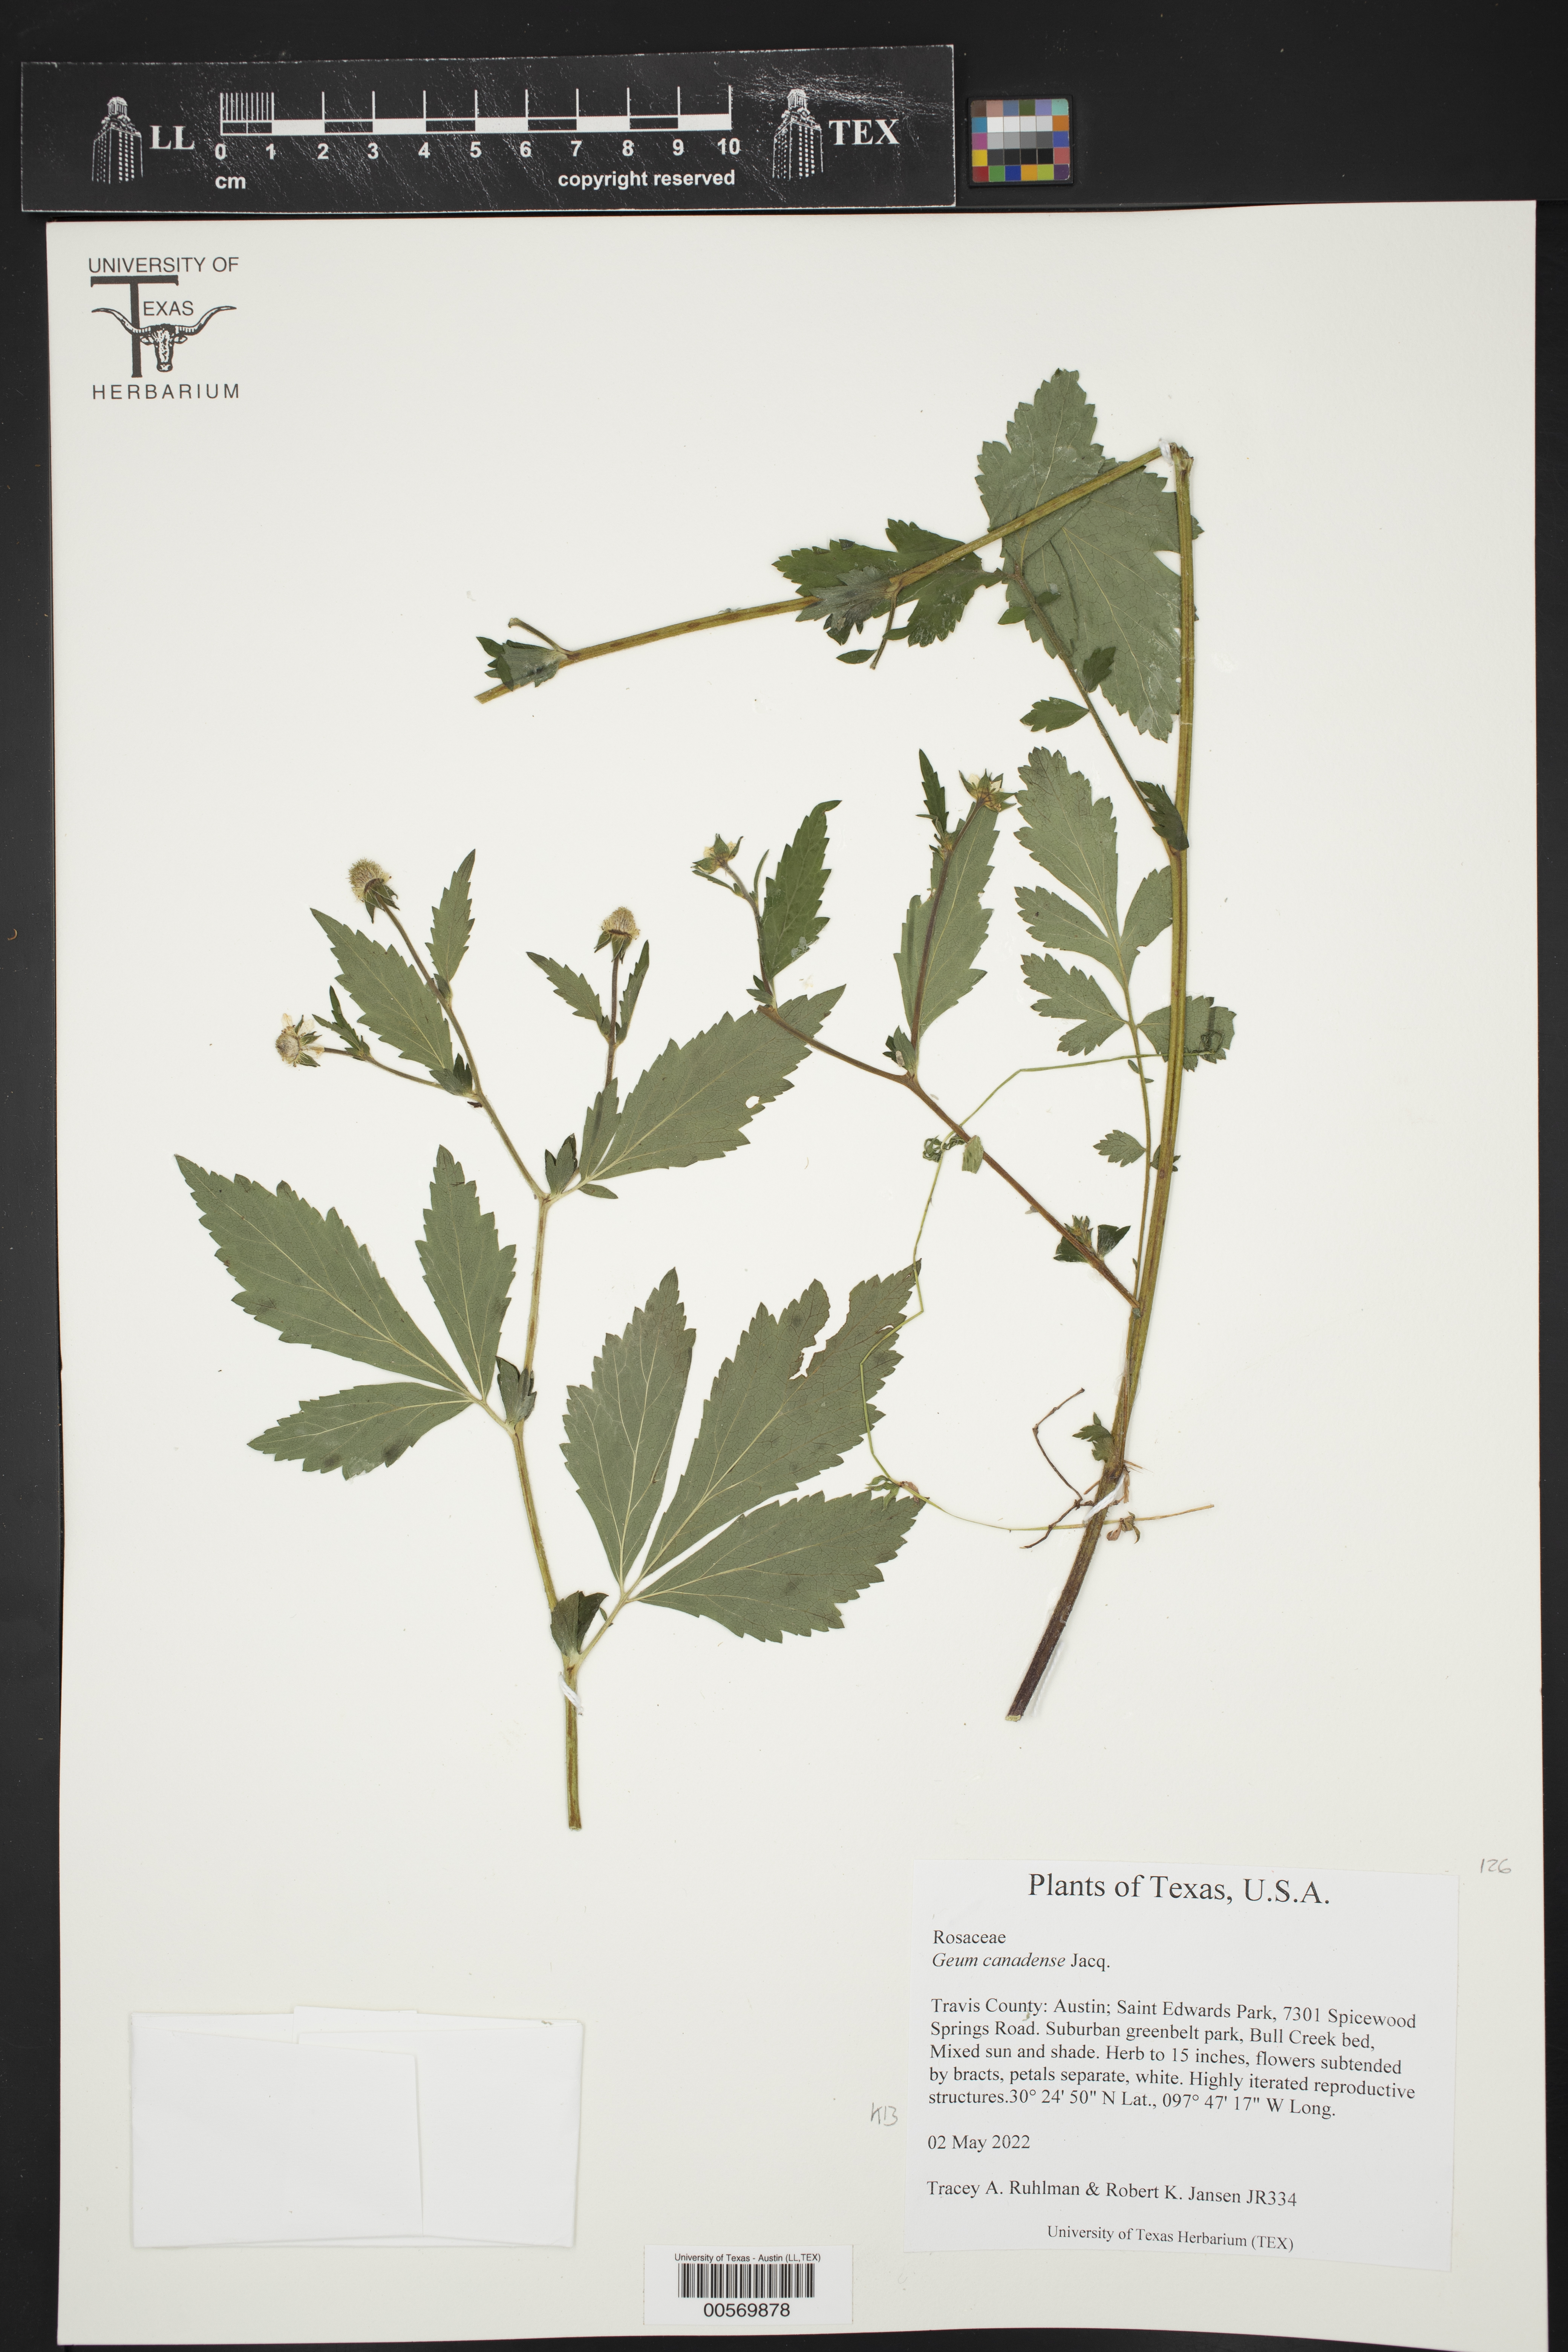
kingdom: Plantae
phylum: Tracheophyta
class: Magnoliopsida
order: Rosales
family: Rosaceae
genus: Geum
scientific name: Geum canadense
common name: White avens
